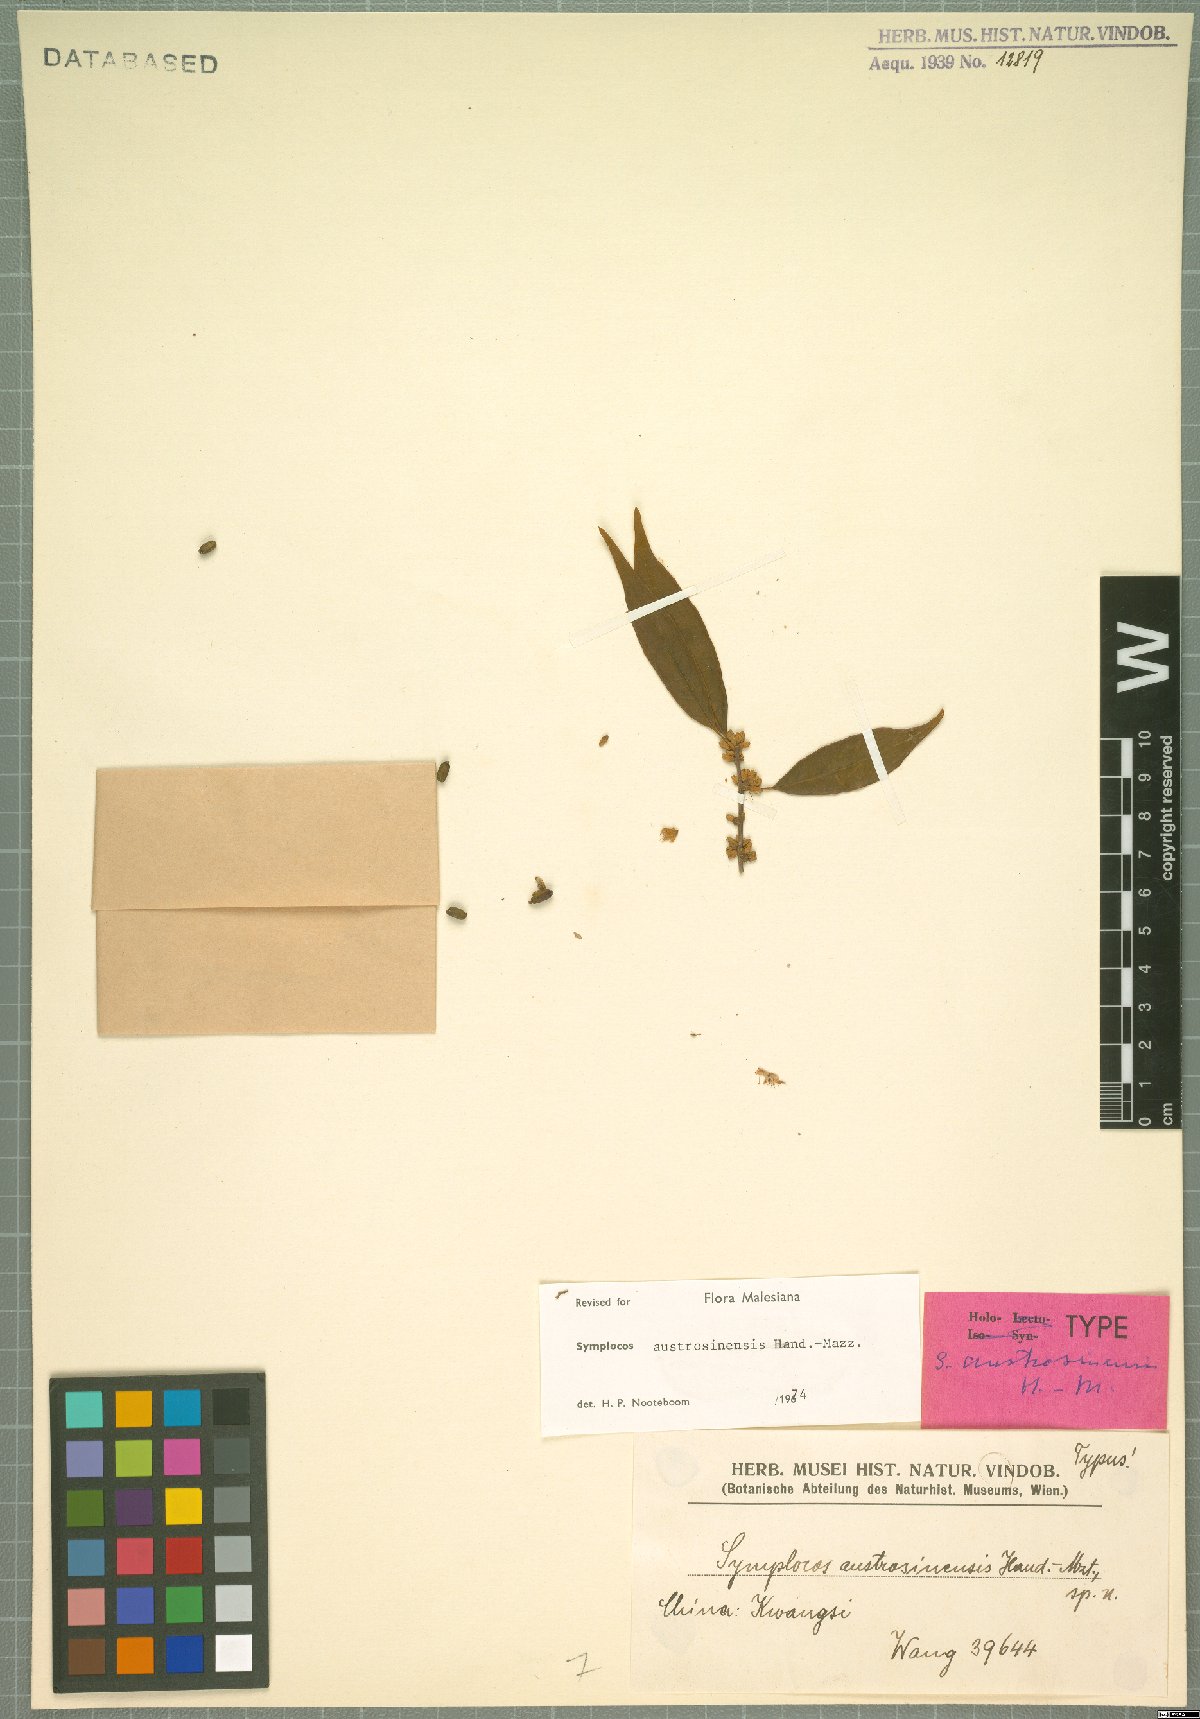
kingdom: Plantae
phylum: Tracheophyta
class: Magnoliopsida
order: Ericales
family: Symplocaceae
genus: Symplocos
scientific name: Symplocos austrosinensis
